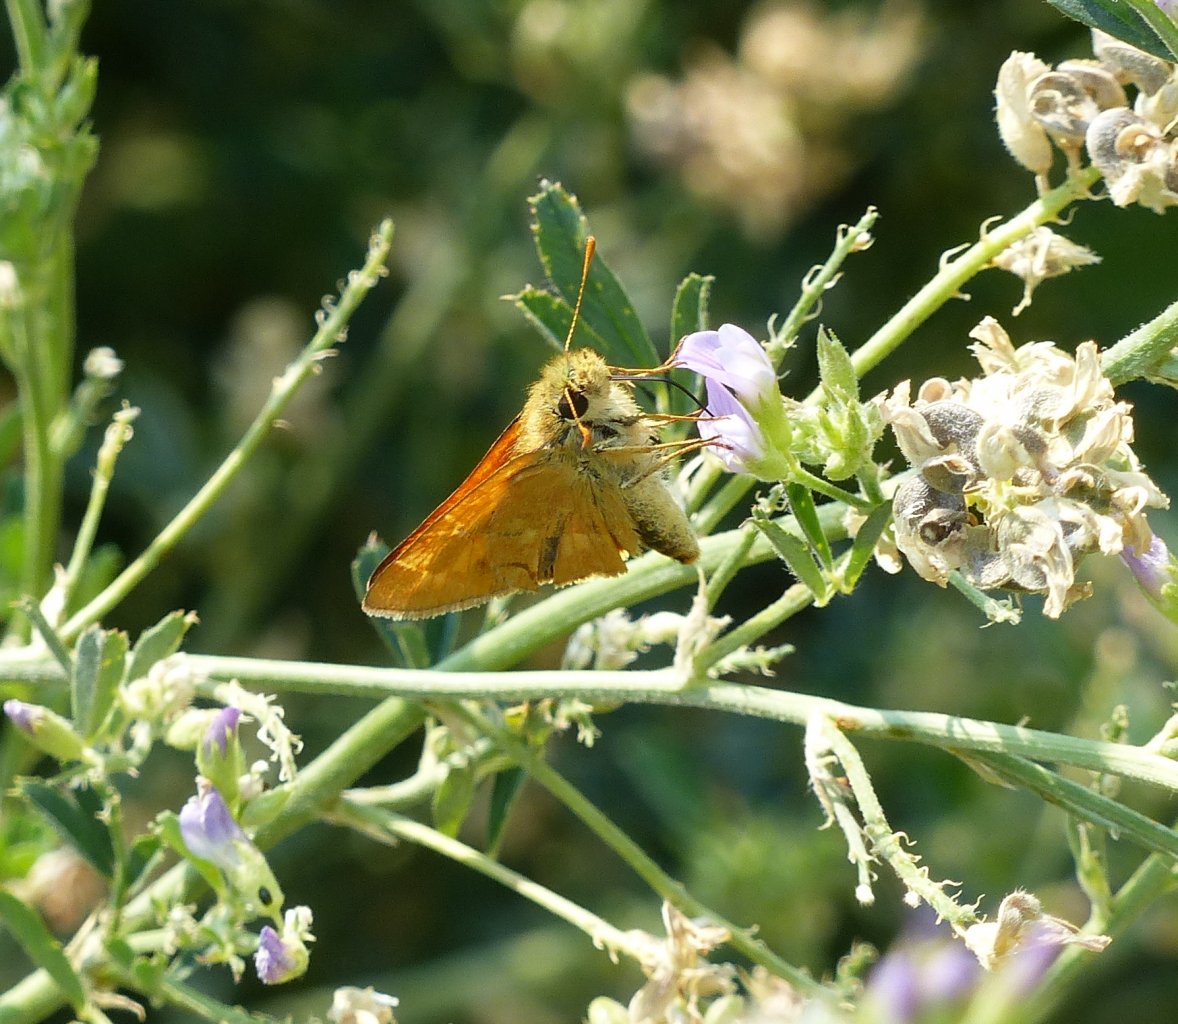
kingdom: Animalia
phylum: Arthropoda
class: Insecta
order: Lepidoptera
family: Hesperiidae
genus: Ochlodes
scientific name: Ochlodes sylvanoides
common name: Woodland Skipper
